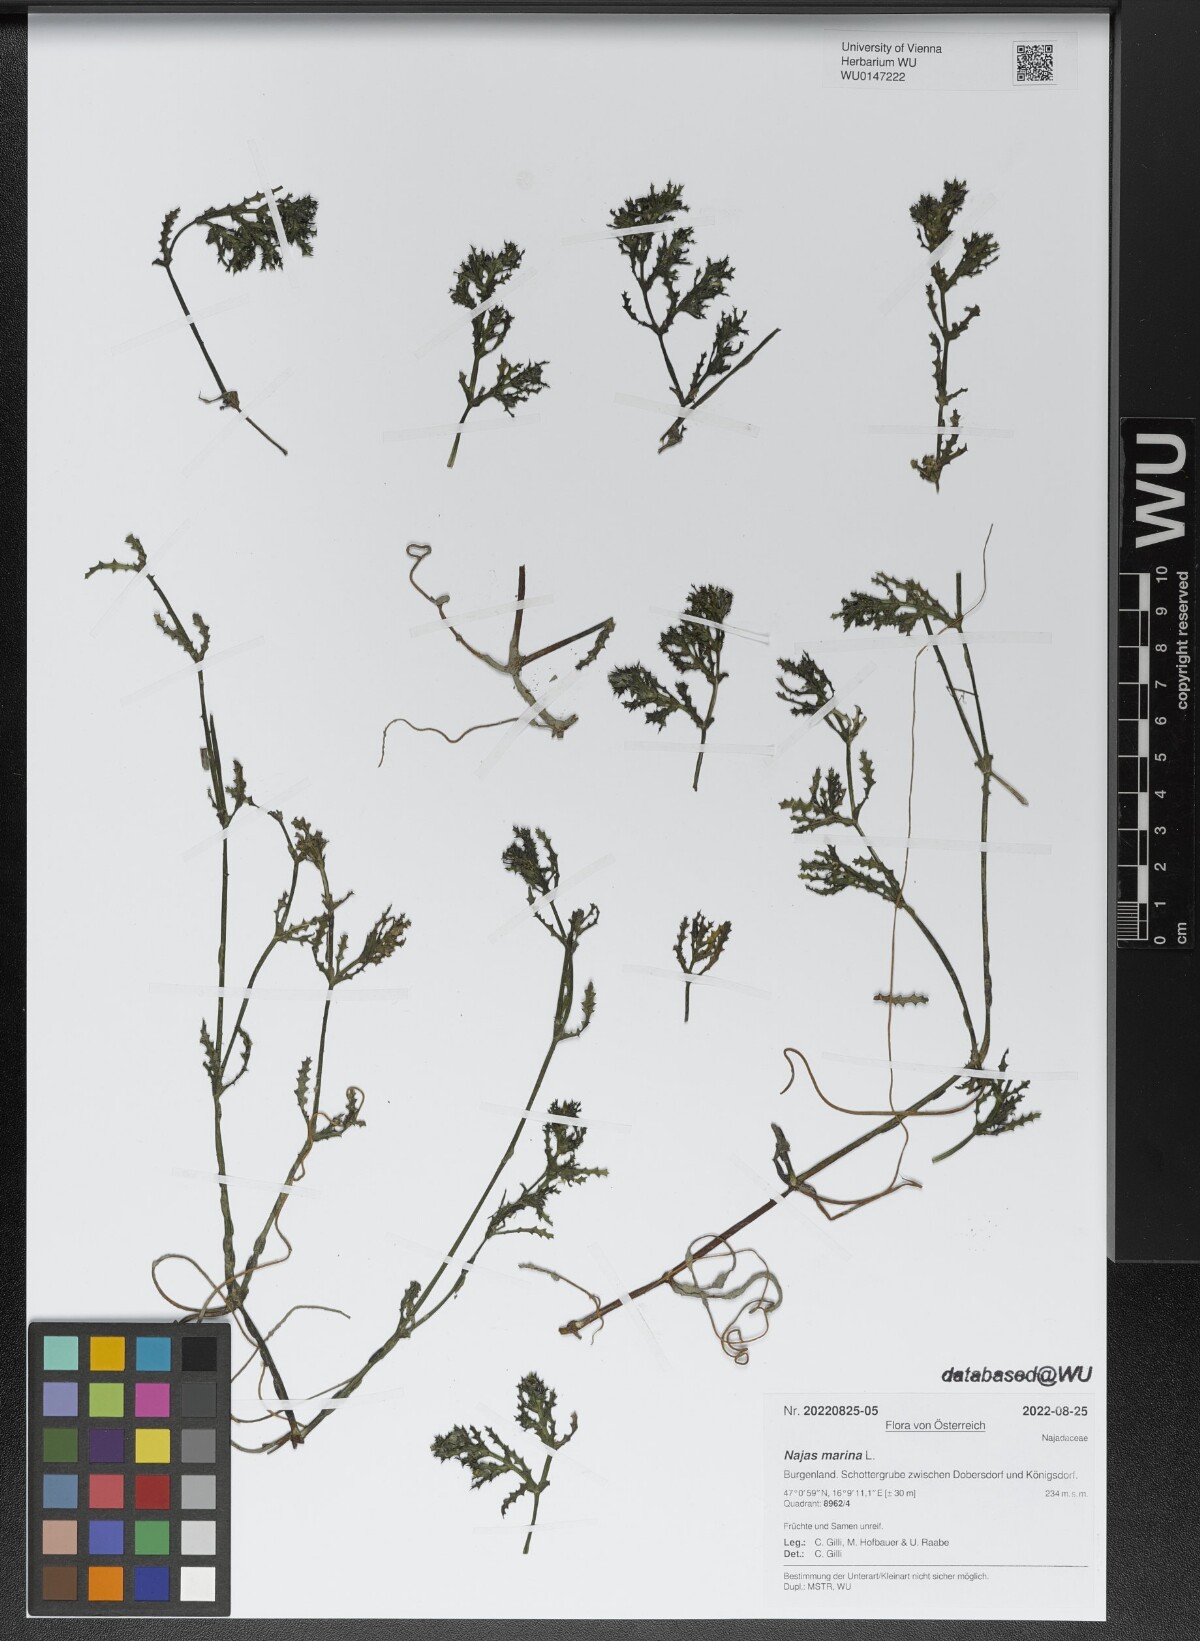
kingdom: Plantae
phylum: Tracheophyta
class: Liliopsida
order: Alismatales
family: Hydrocharitaceae
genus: Najas
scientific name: Najas marina
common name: Holly-leaved naiad
